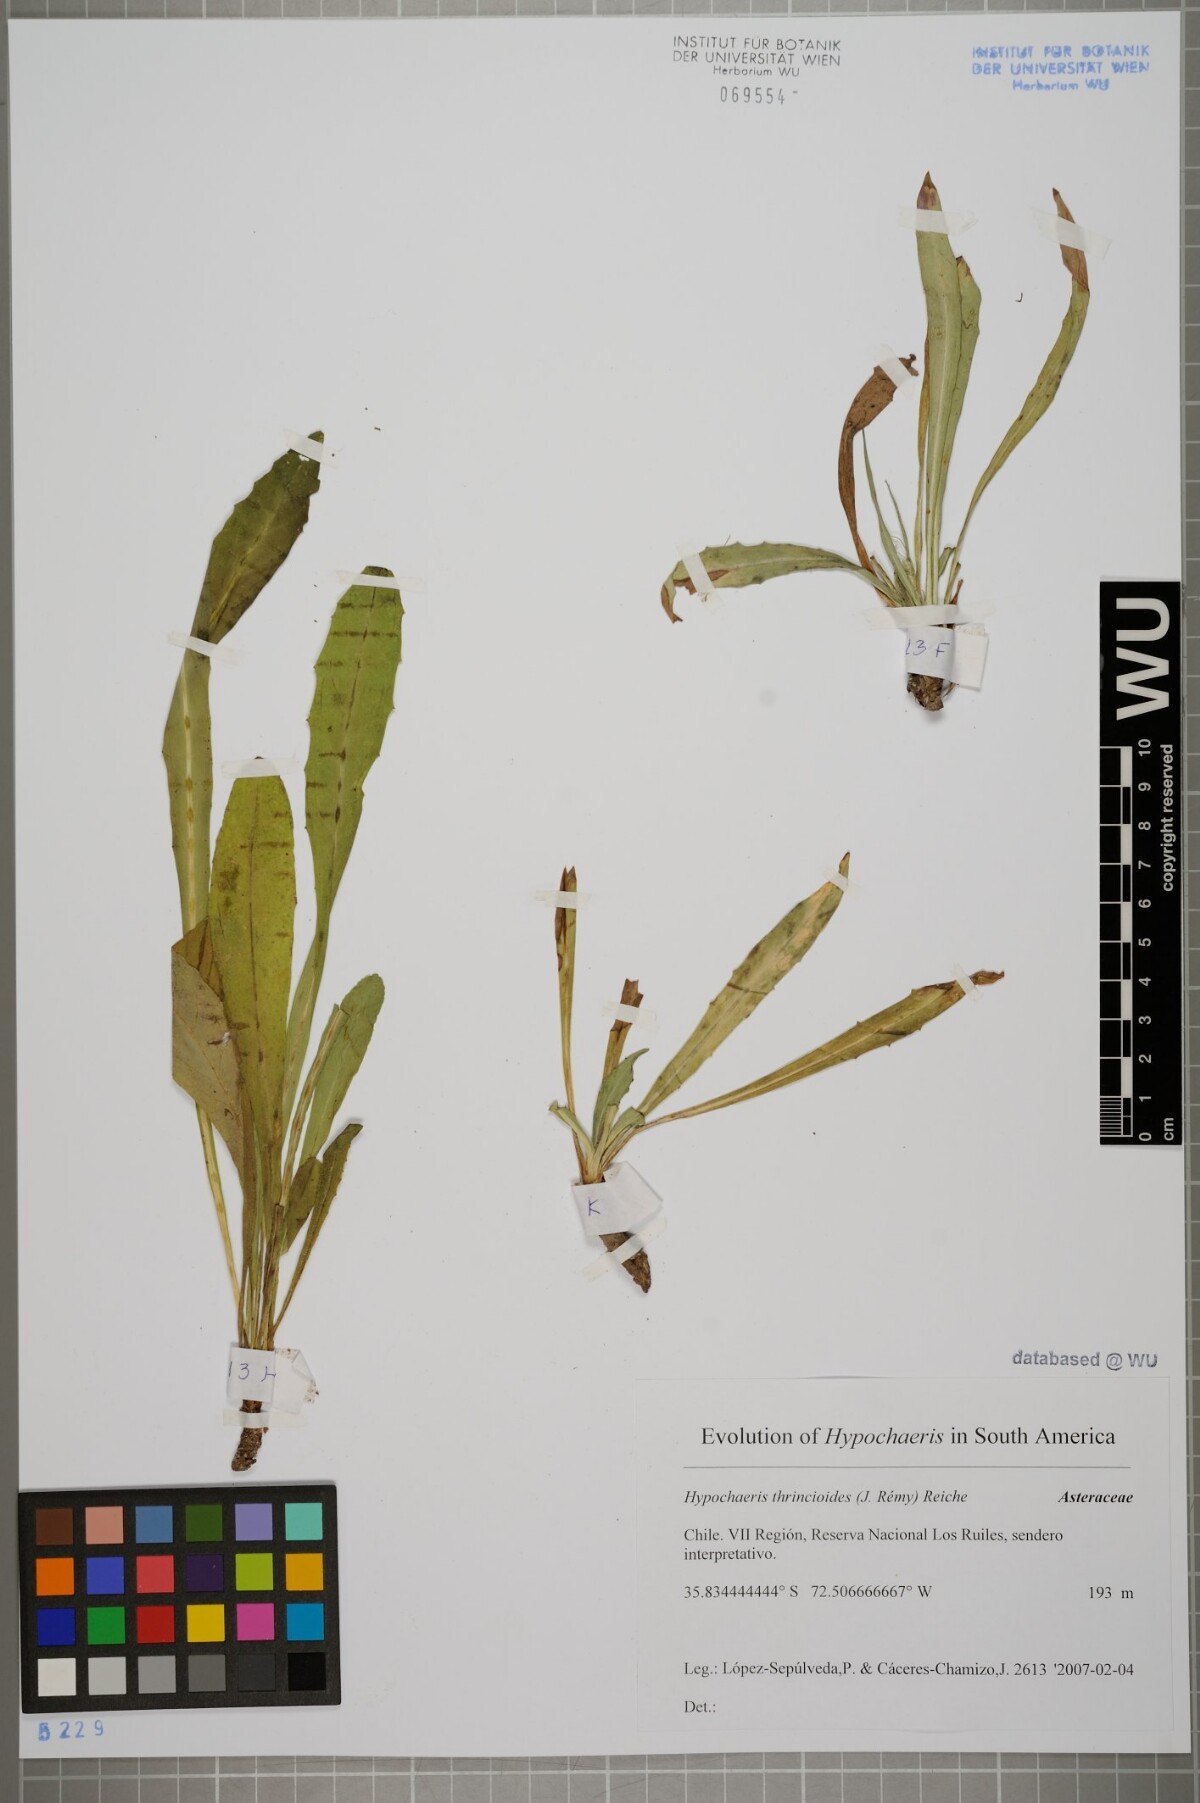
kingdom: Plantae
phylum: Tracheophyta
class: Magnoliopsida
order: Asterales
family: Asteraceae
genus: Hypochaeris
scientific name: Hypochaeris apargioides
